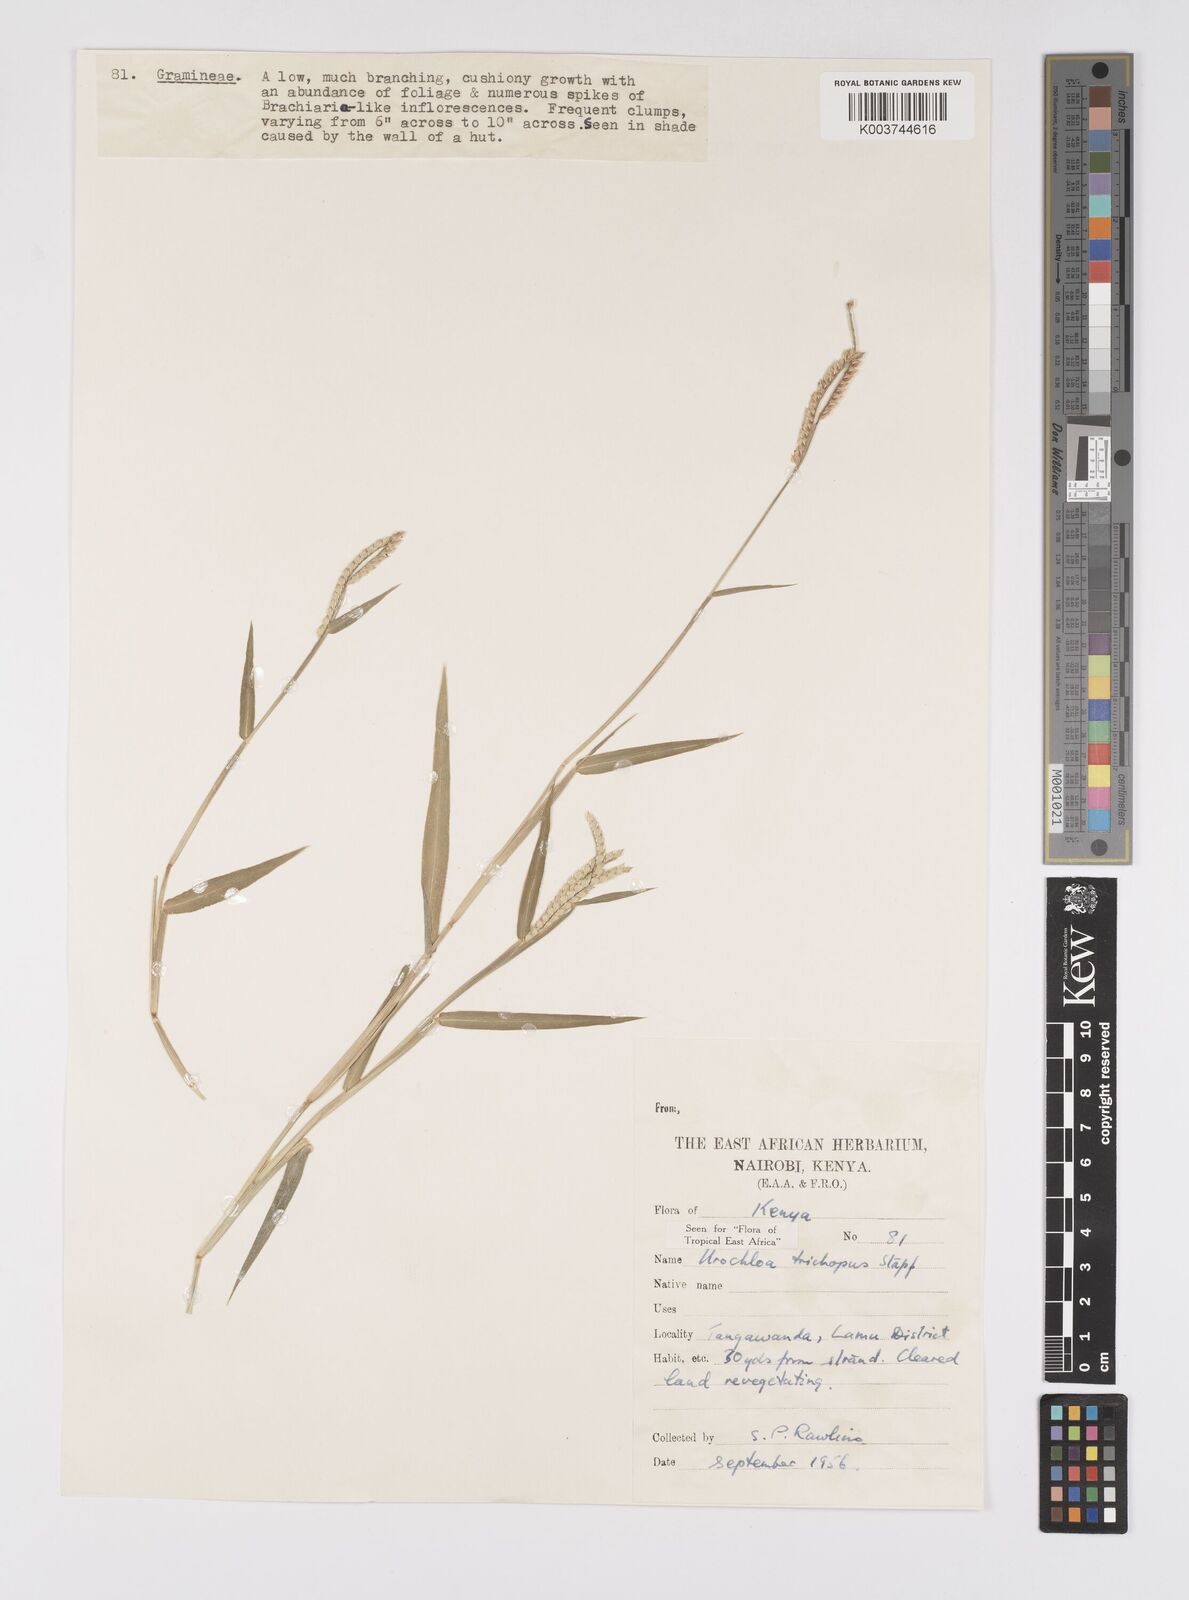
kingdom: Plantae
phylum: Tracheophyta
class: Liliopsida
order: Poales
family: Poaceae
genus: Urochloa
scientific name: Urochloa trichopus
